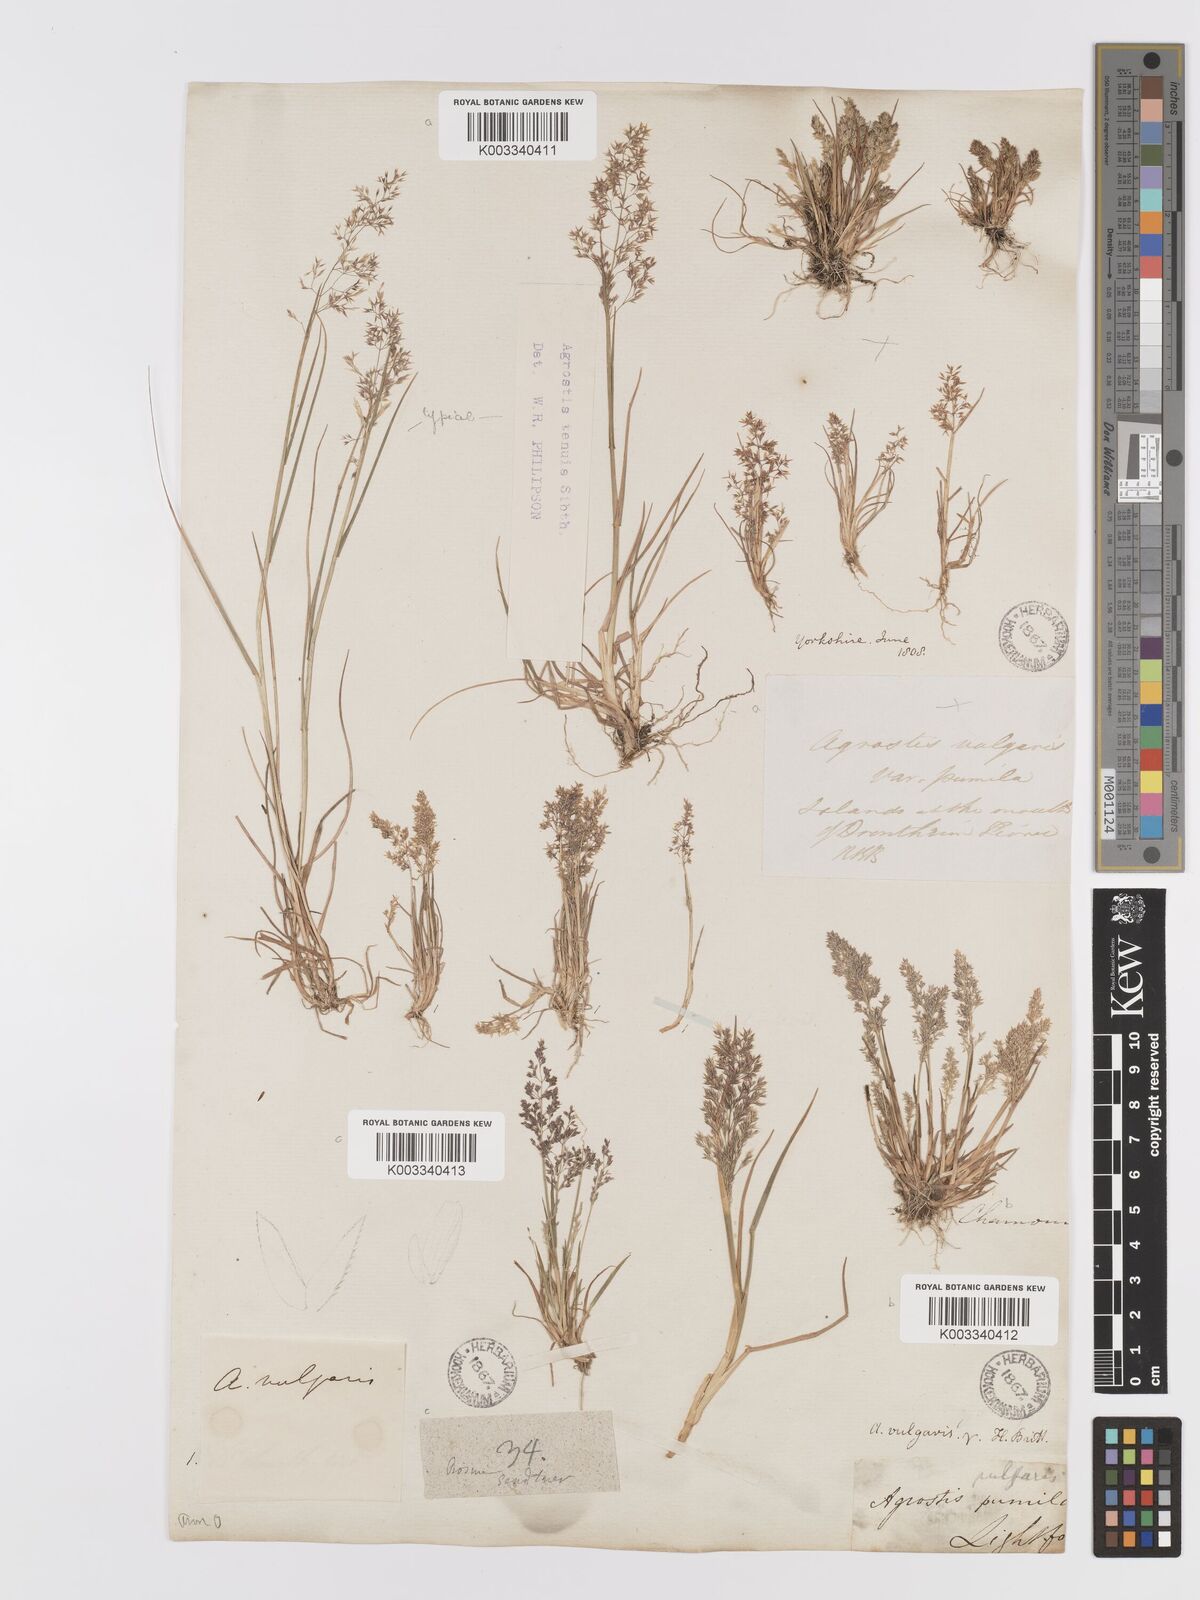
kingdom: Plantae
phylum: Tracheophyta
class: Liliopsida
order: Poales
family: Poaceae
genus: Agrostis
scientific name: Agrostis capillaris
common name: Colonial bentgrass
